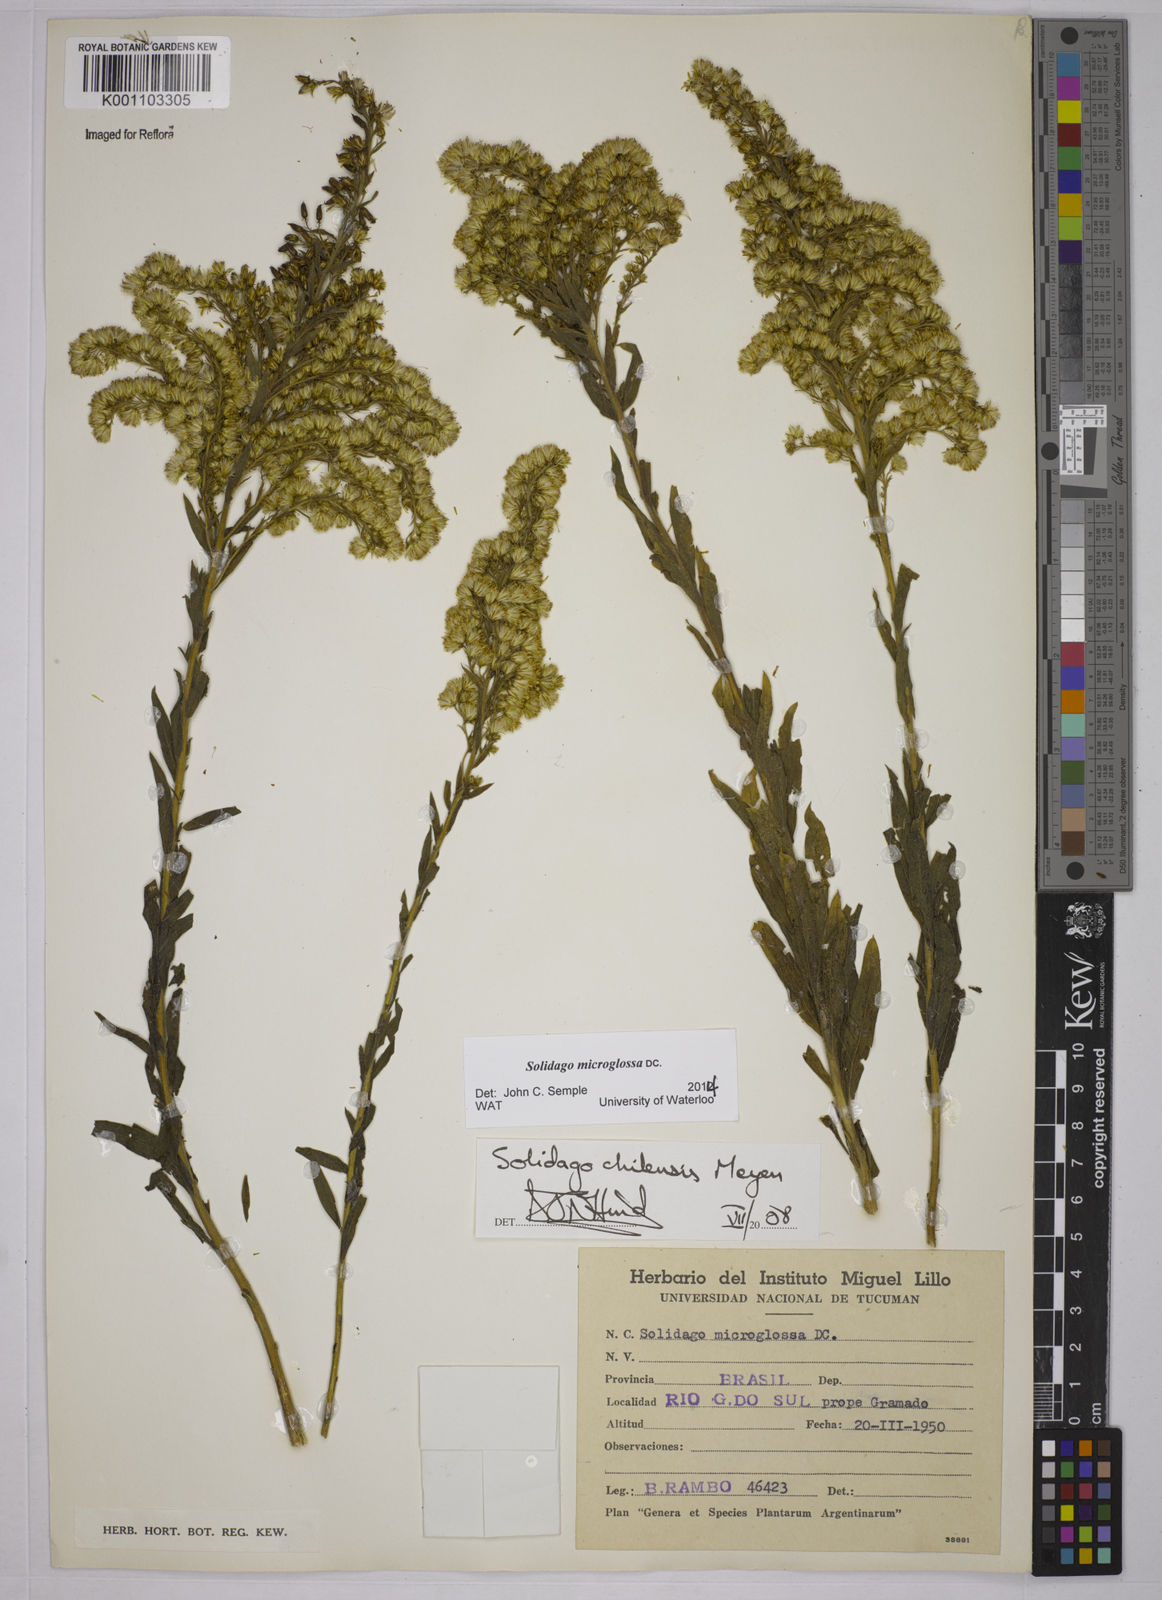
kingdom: Plantae
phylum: Tracheophyta
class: Magnoliopsida
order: Asterales
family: Asteraceae
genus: Solidago
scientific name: Solidago chilensis
